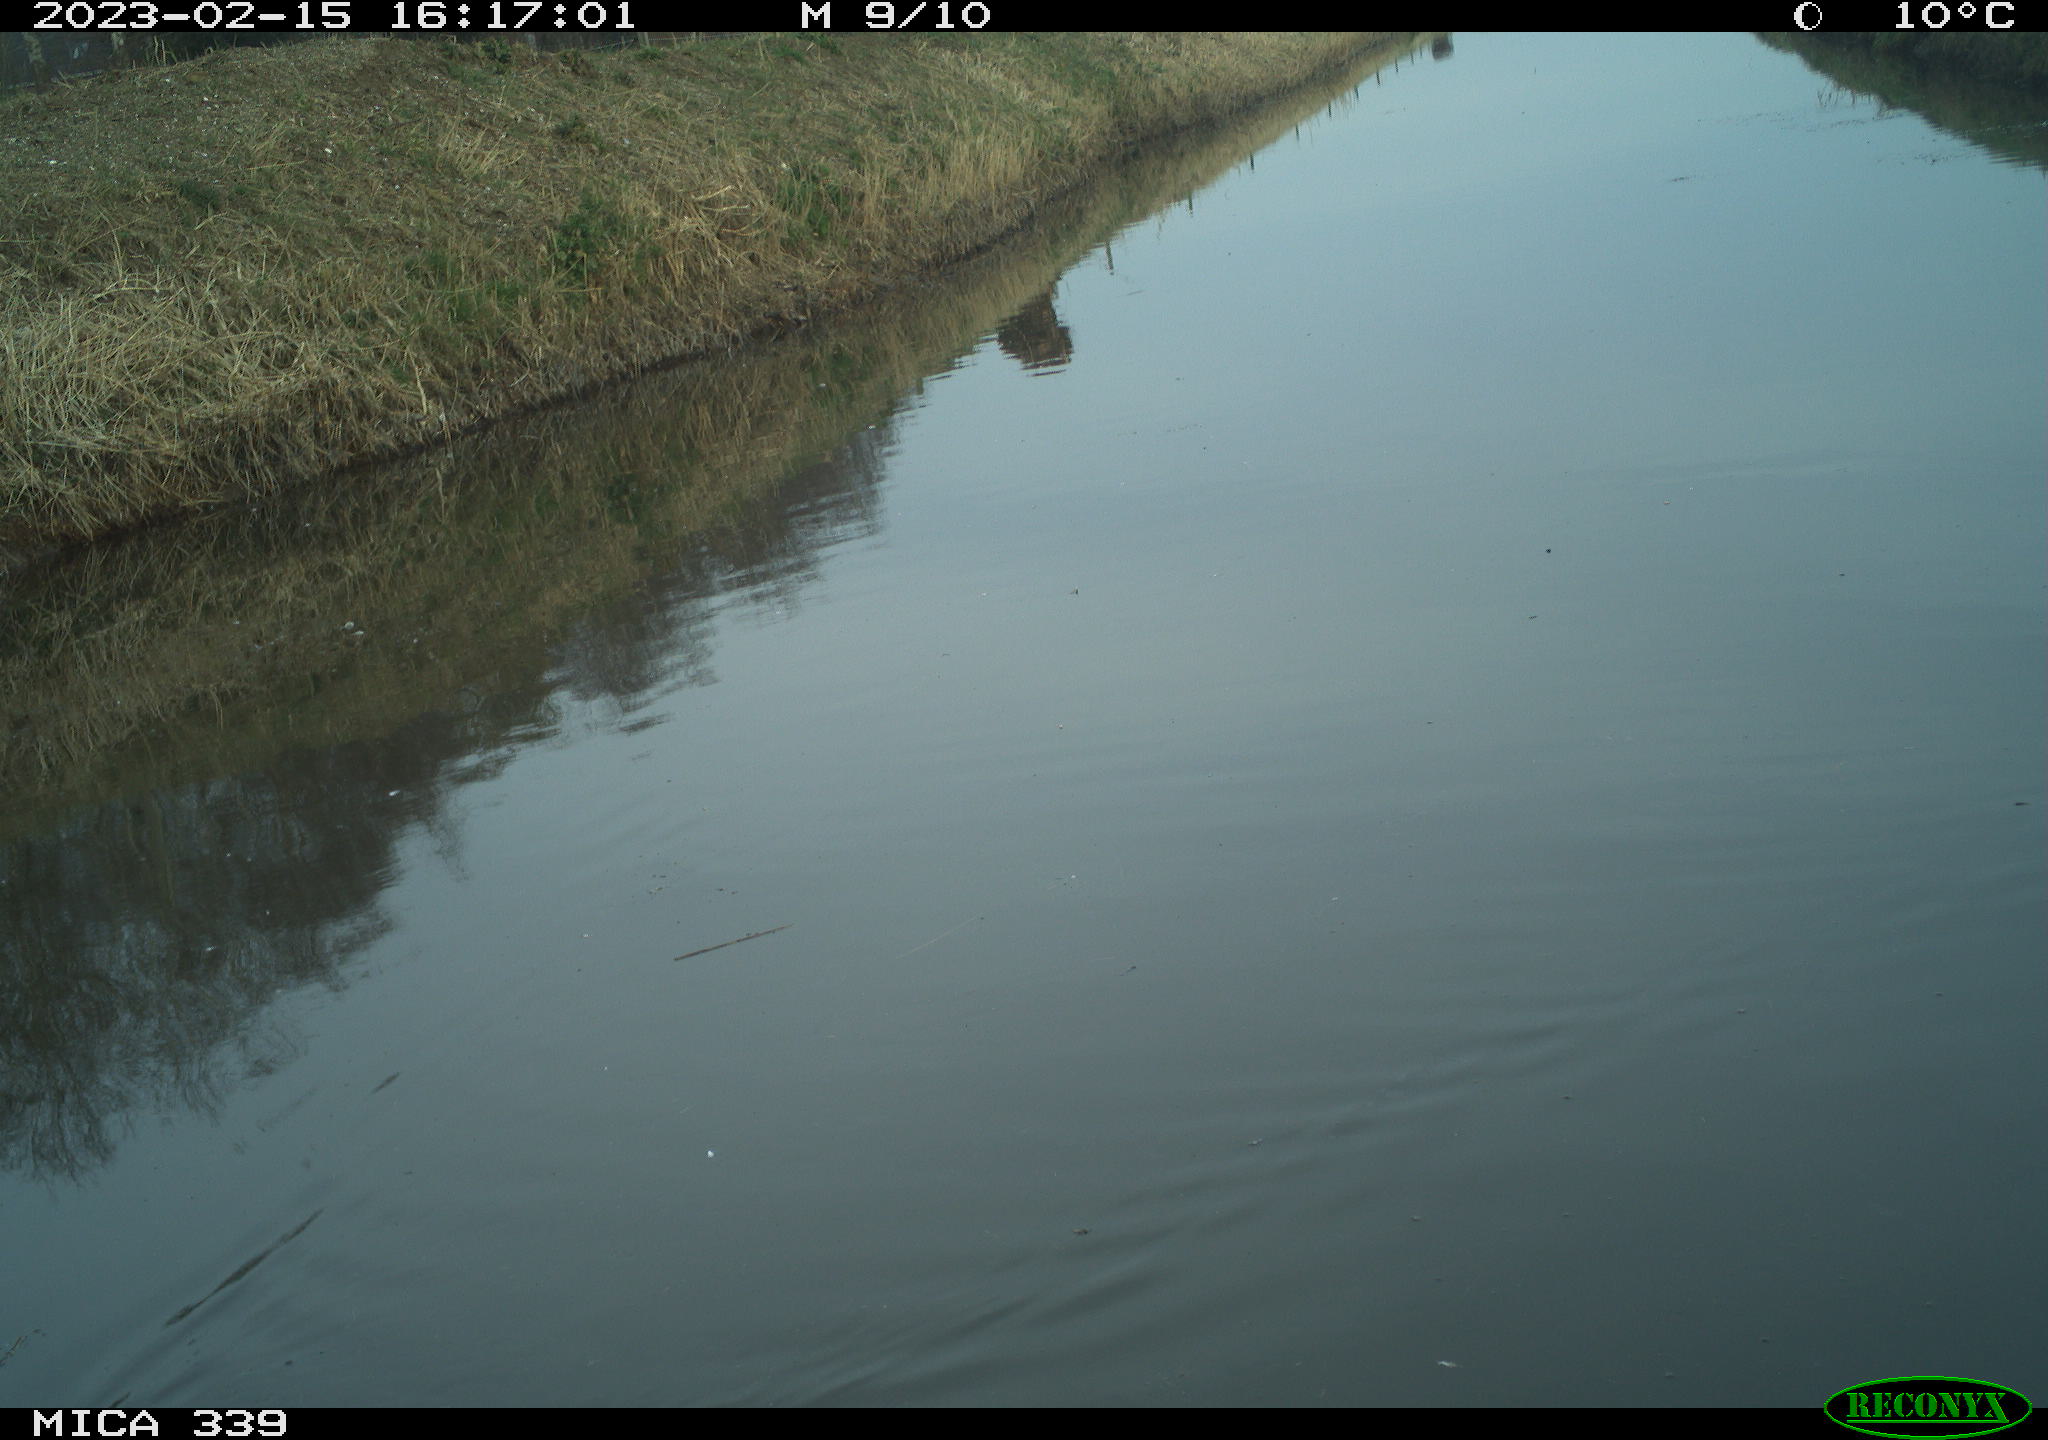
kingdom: Animalia
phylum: Chordata
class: Aves
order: Gruiformes
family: Rallidae
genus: Gallinula
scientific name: Gallinula chloropus
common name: Common moorhen
